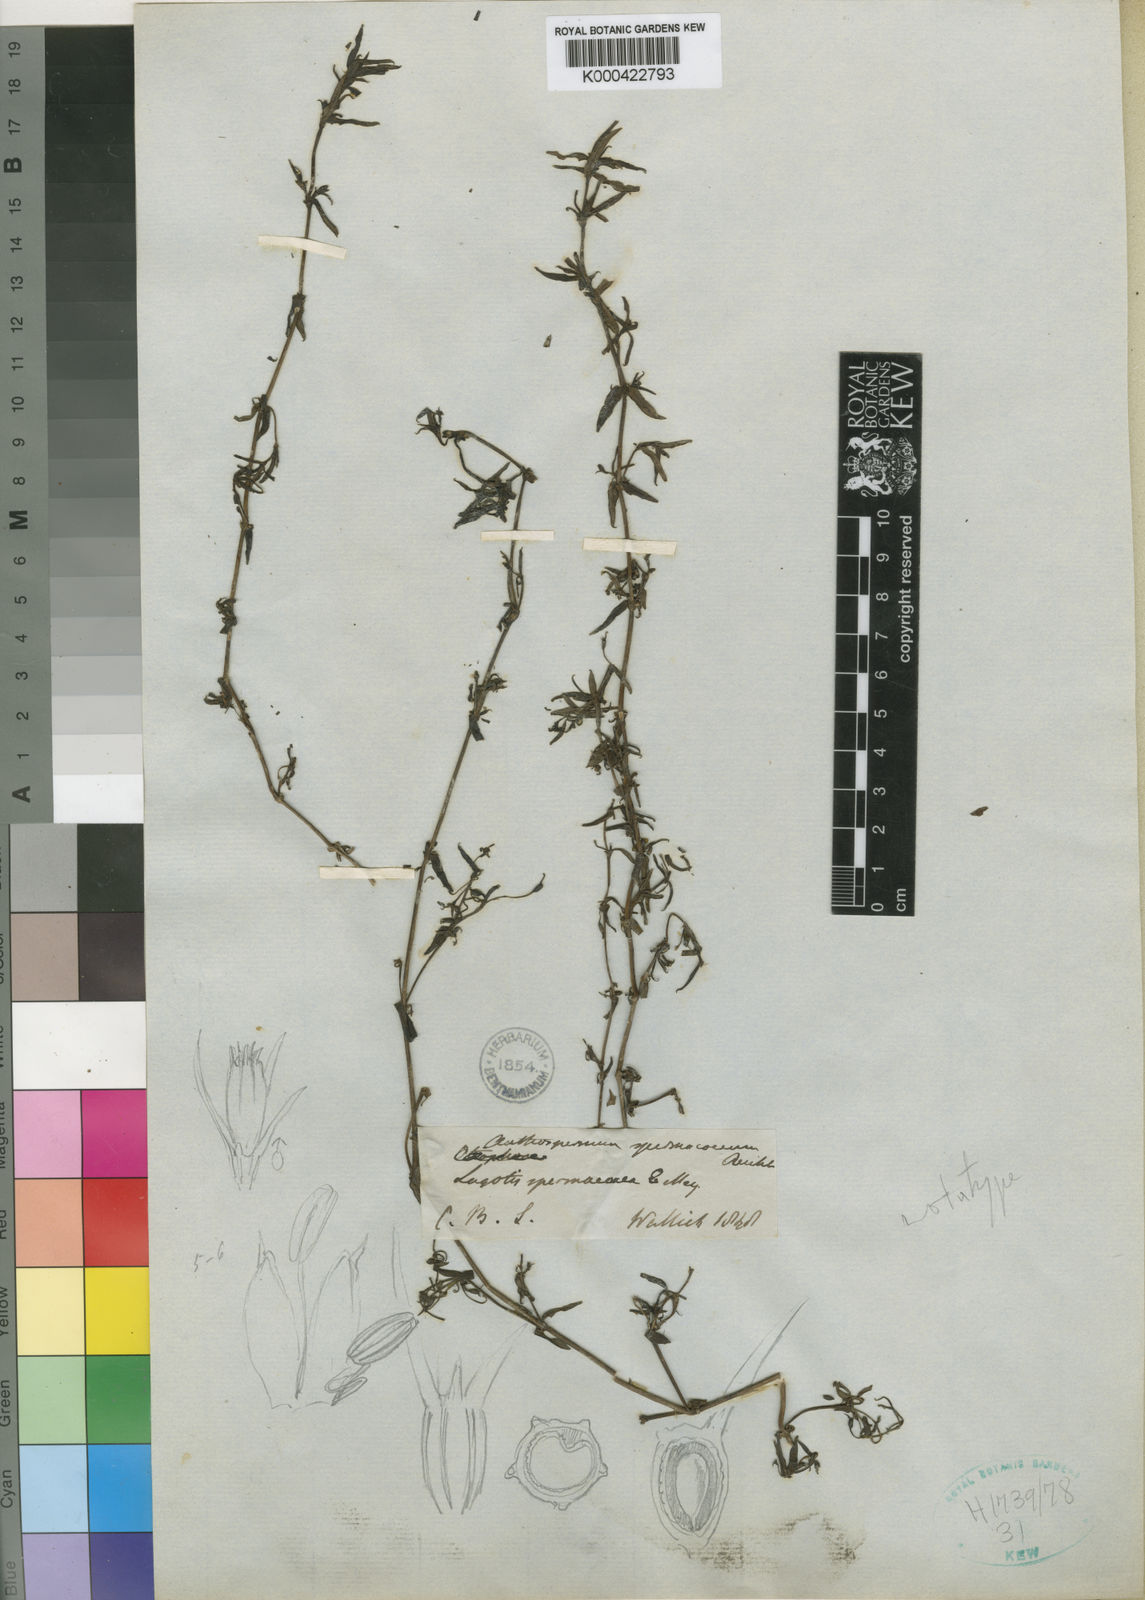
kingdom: Plantae
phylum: Tracheophyta
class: Magnoliopsida
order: Gentianales
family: Rubiaceae
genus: Carpacoce
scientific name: Carpacoce spermacocea
